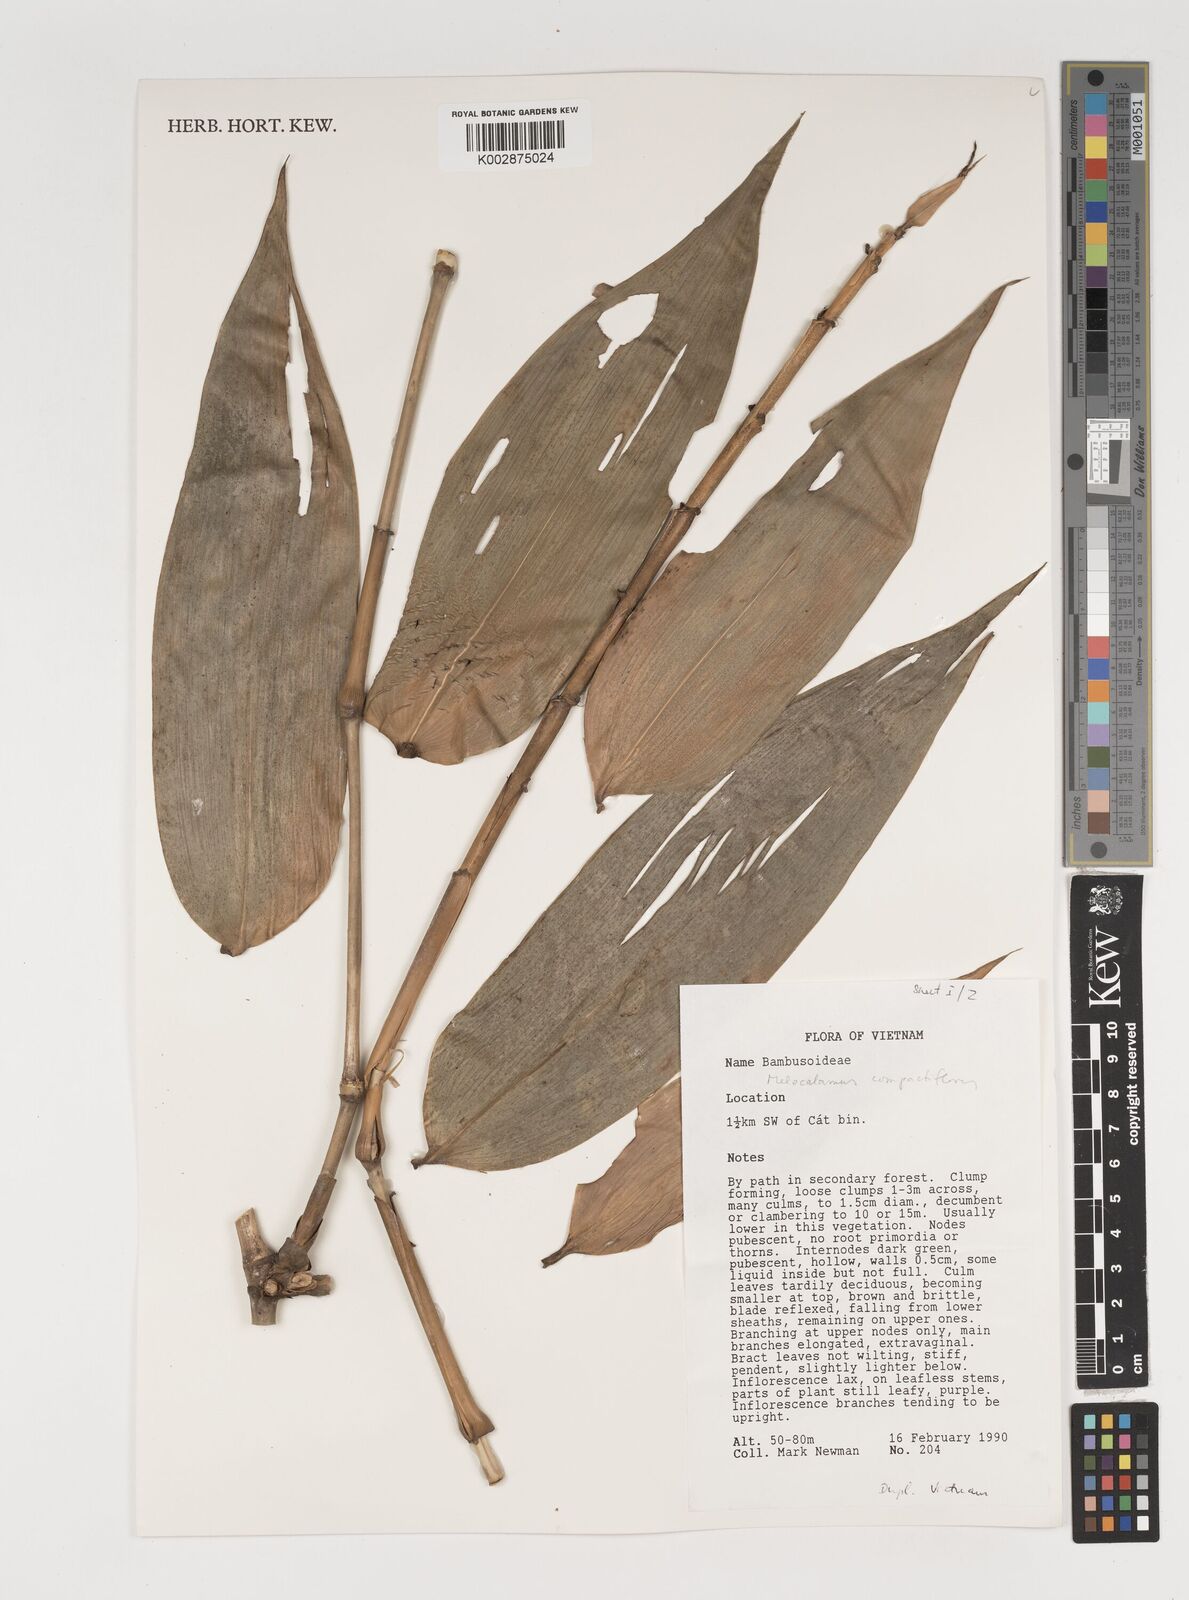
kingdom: Plantae
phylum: Tracheophyta
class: Liliopsida
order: Poales
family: Poaceae
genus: Melocalamus
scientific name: Melocalamus
